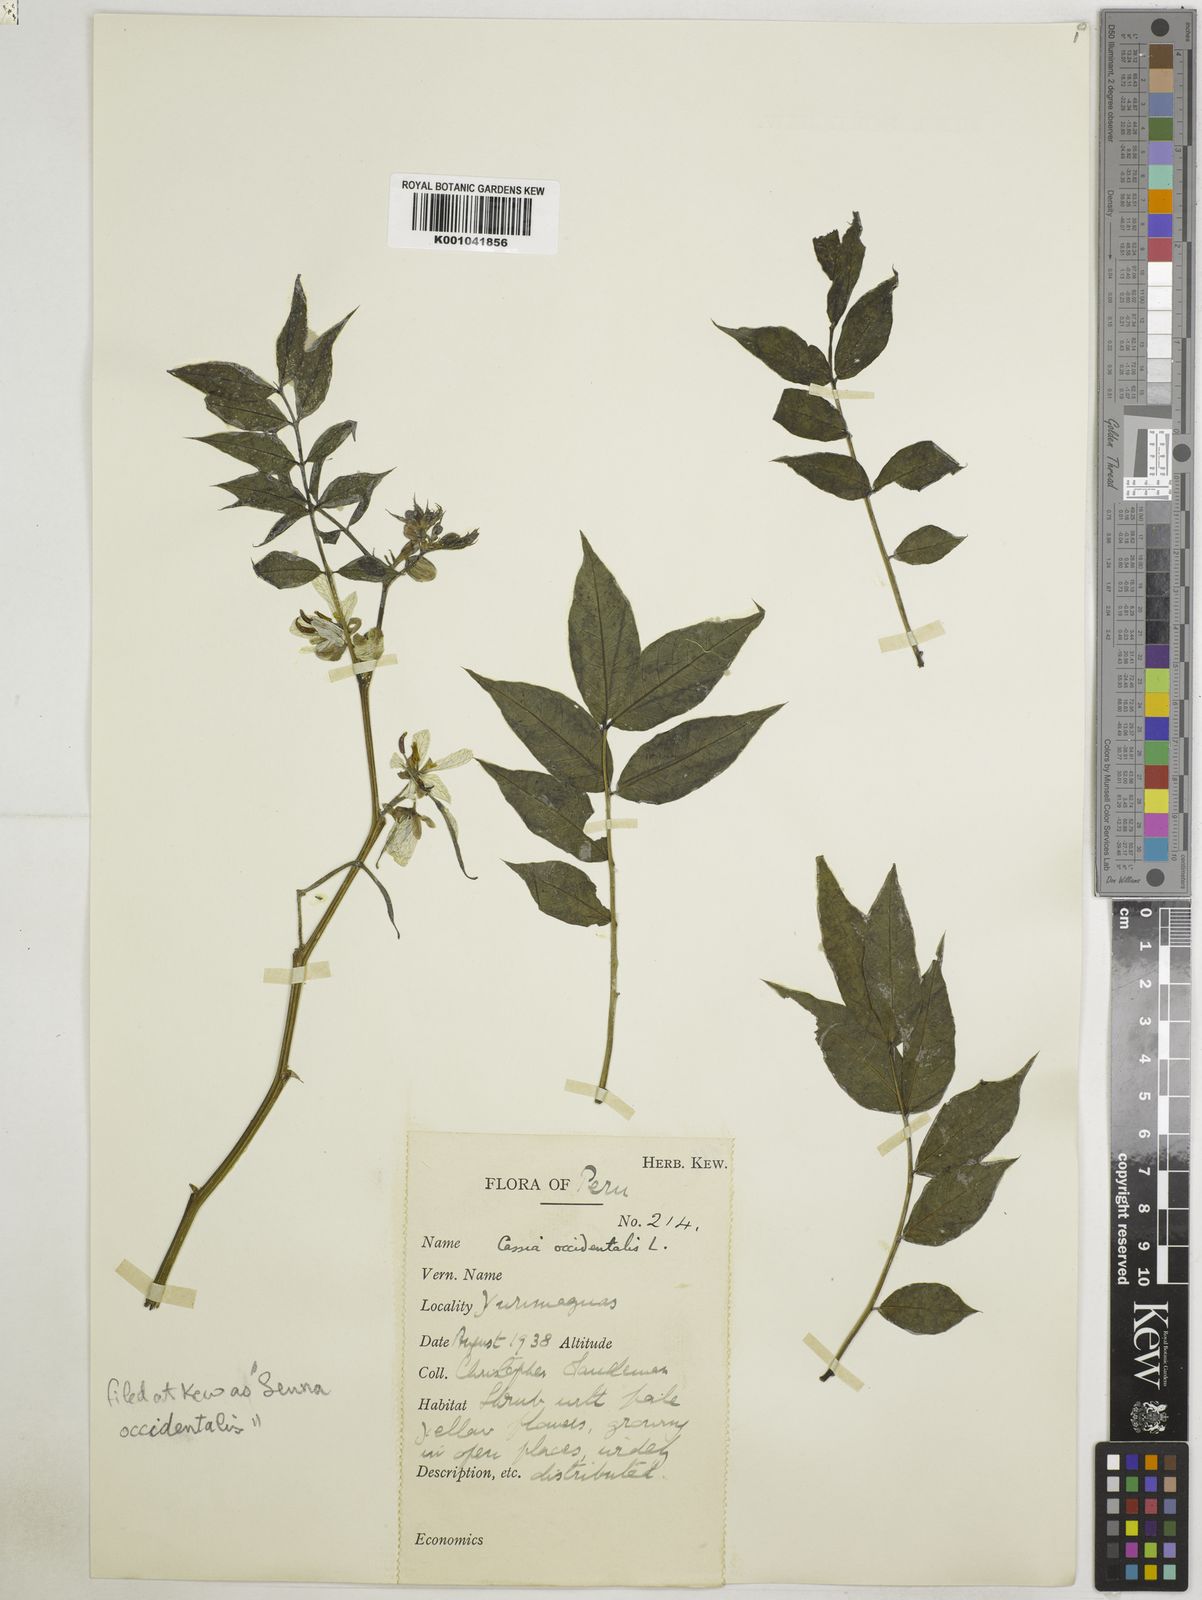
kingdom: Plantae
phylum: Tracheophyta
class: Magnoliopsida
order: Fabales
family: Fabaceae
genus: Senna
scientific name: Senna occidentalis
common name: Septicweed
